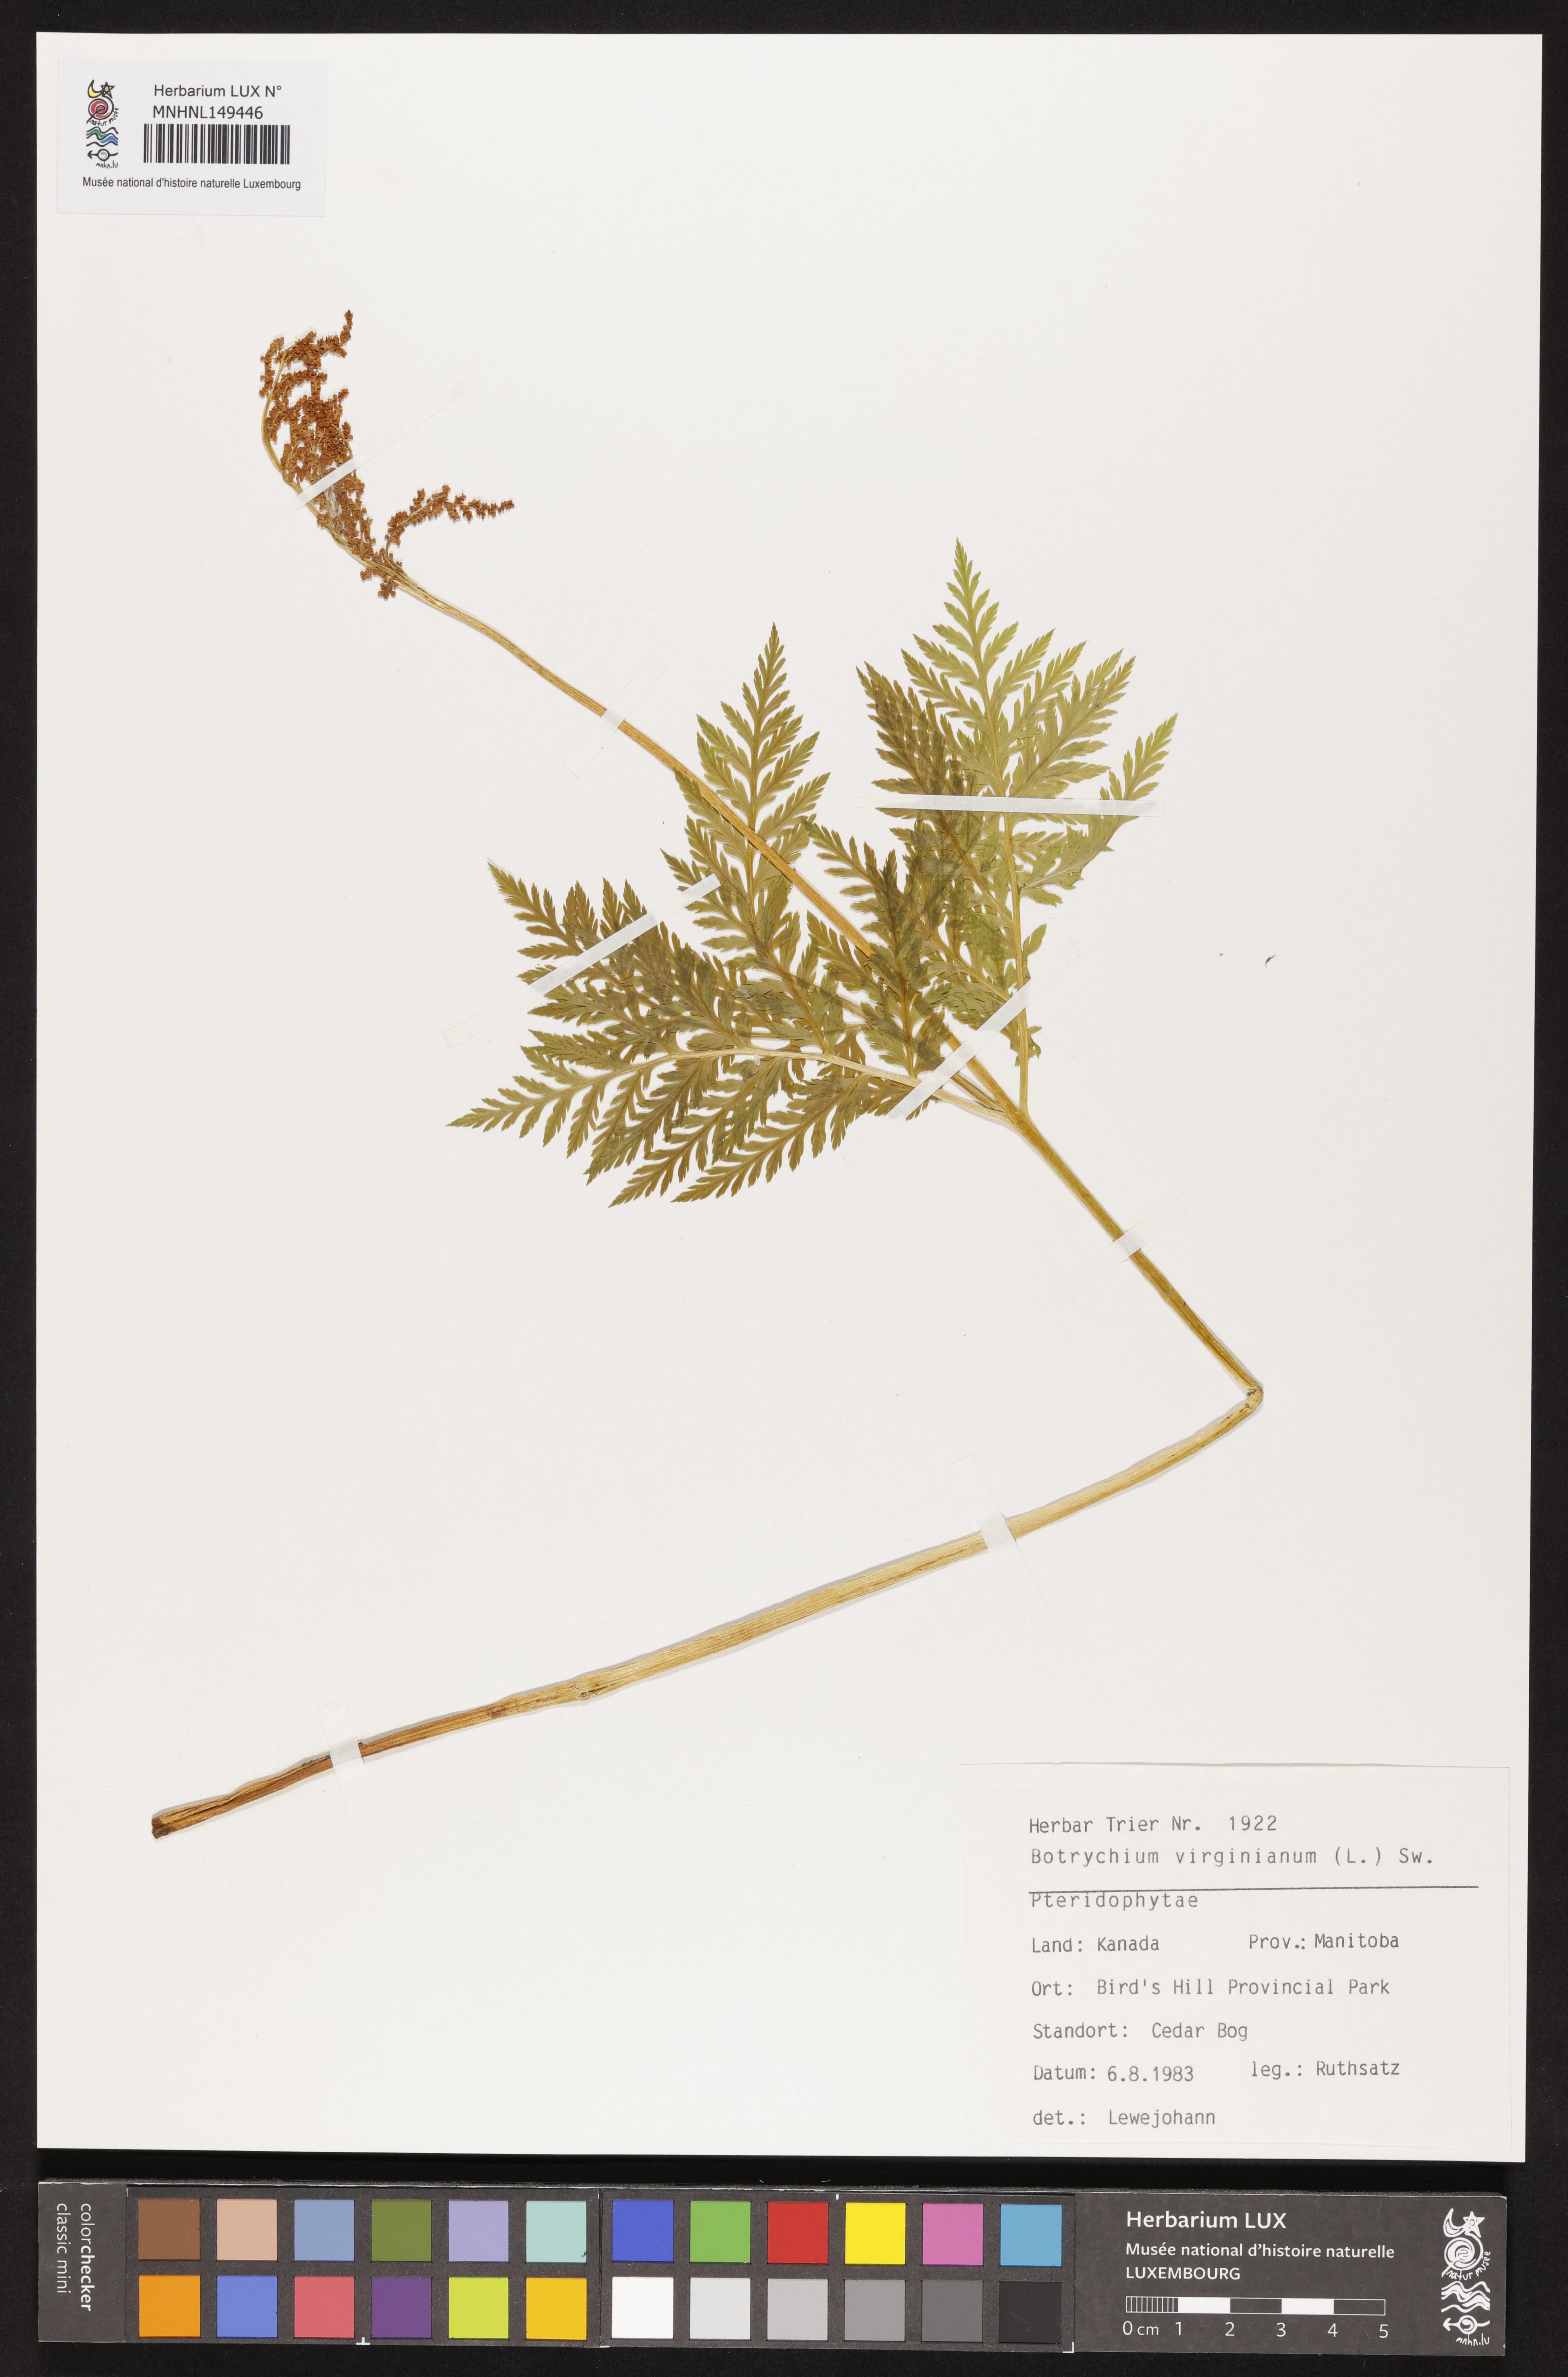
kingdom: Plantae
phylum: Tracheophyta
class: Polypodiopsida
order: Ophioglossales
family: Ophioglossaceae
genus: Botrypus
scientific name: Botrypus virginianus
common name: Common grapefern
